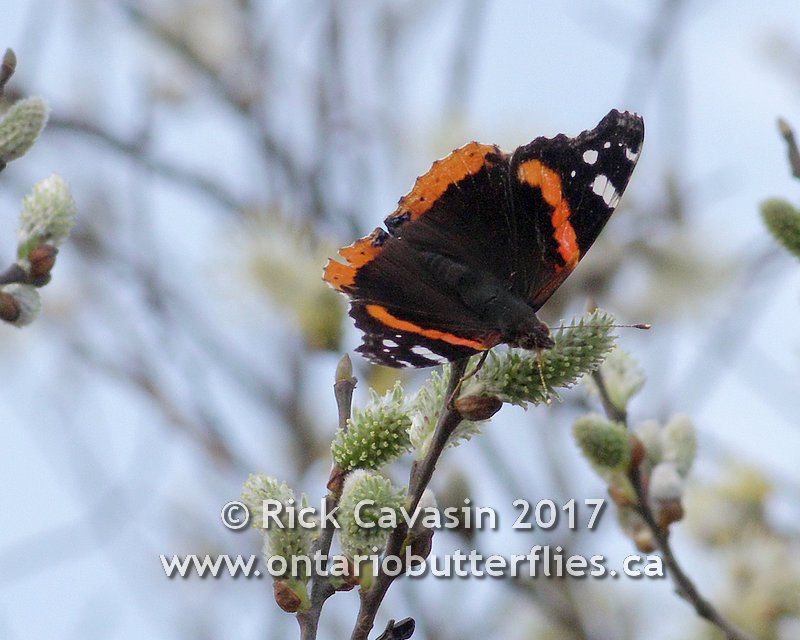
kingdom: Animalia
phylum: Arthropoda
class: Insecta
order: Lepidoptera
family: Nymphalidae
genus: Vanessa
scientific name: Vanessa atalanta
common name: Red Admiral
